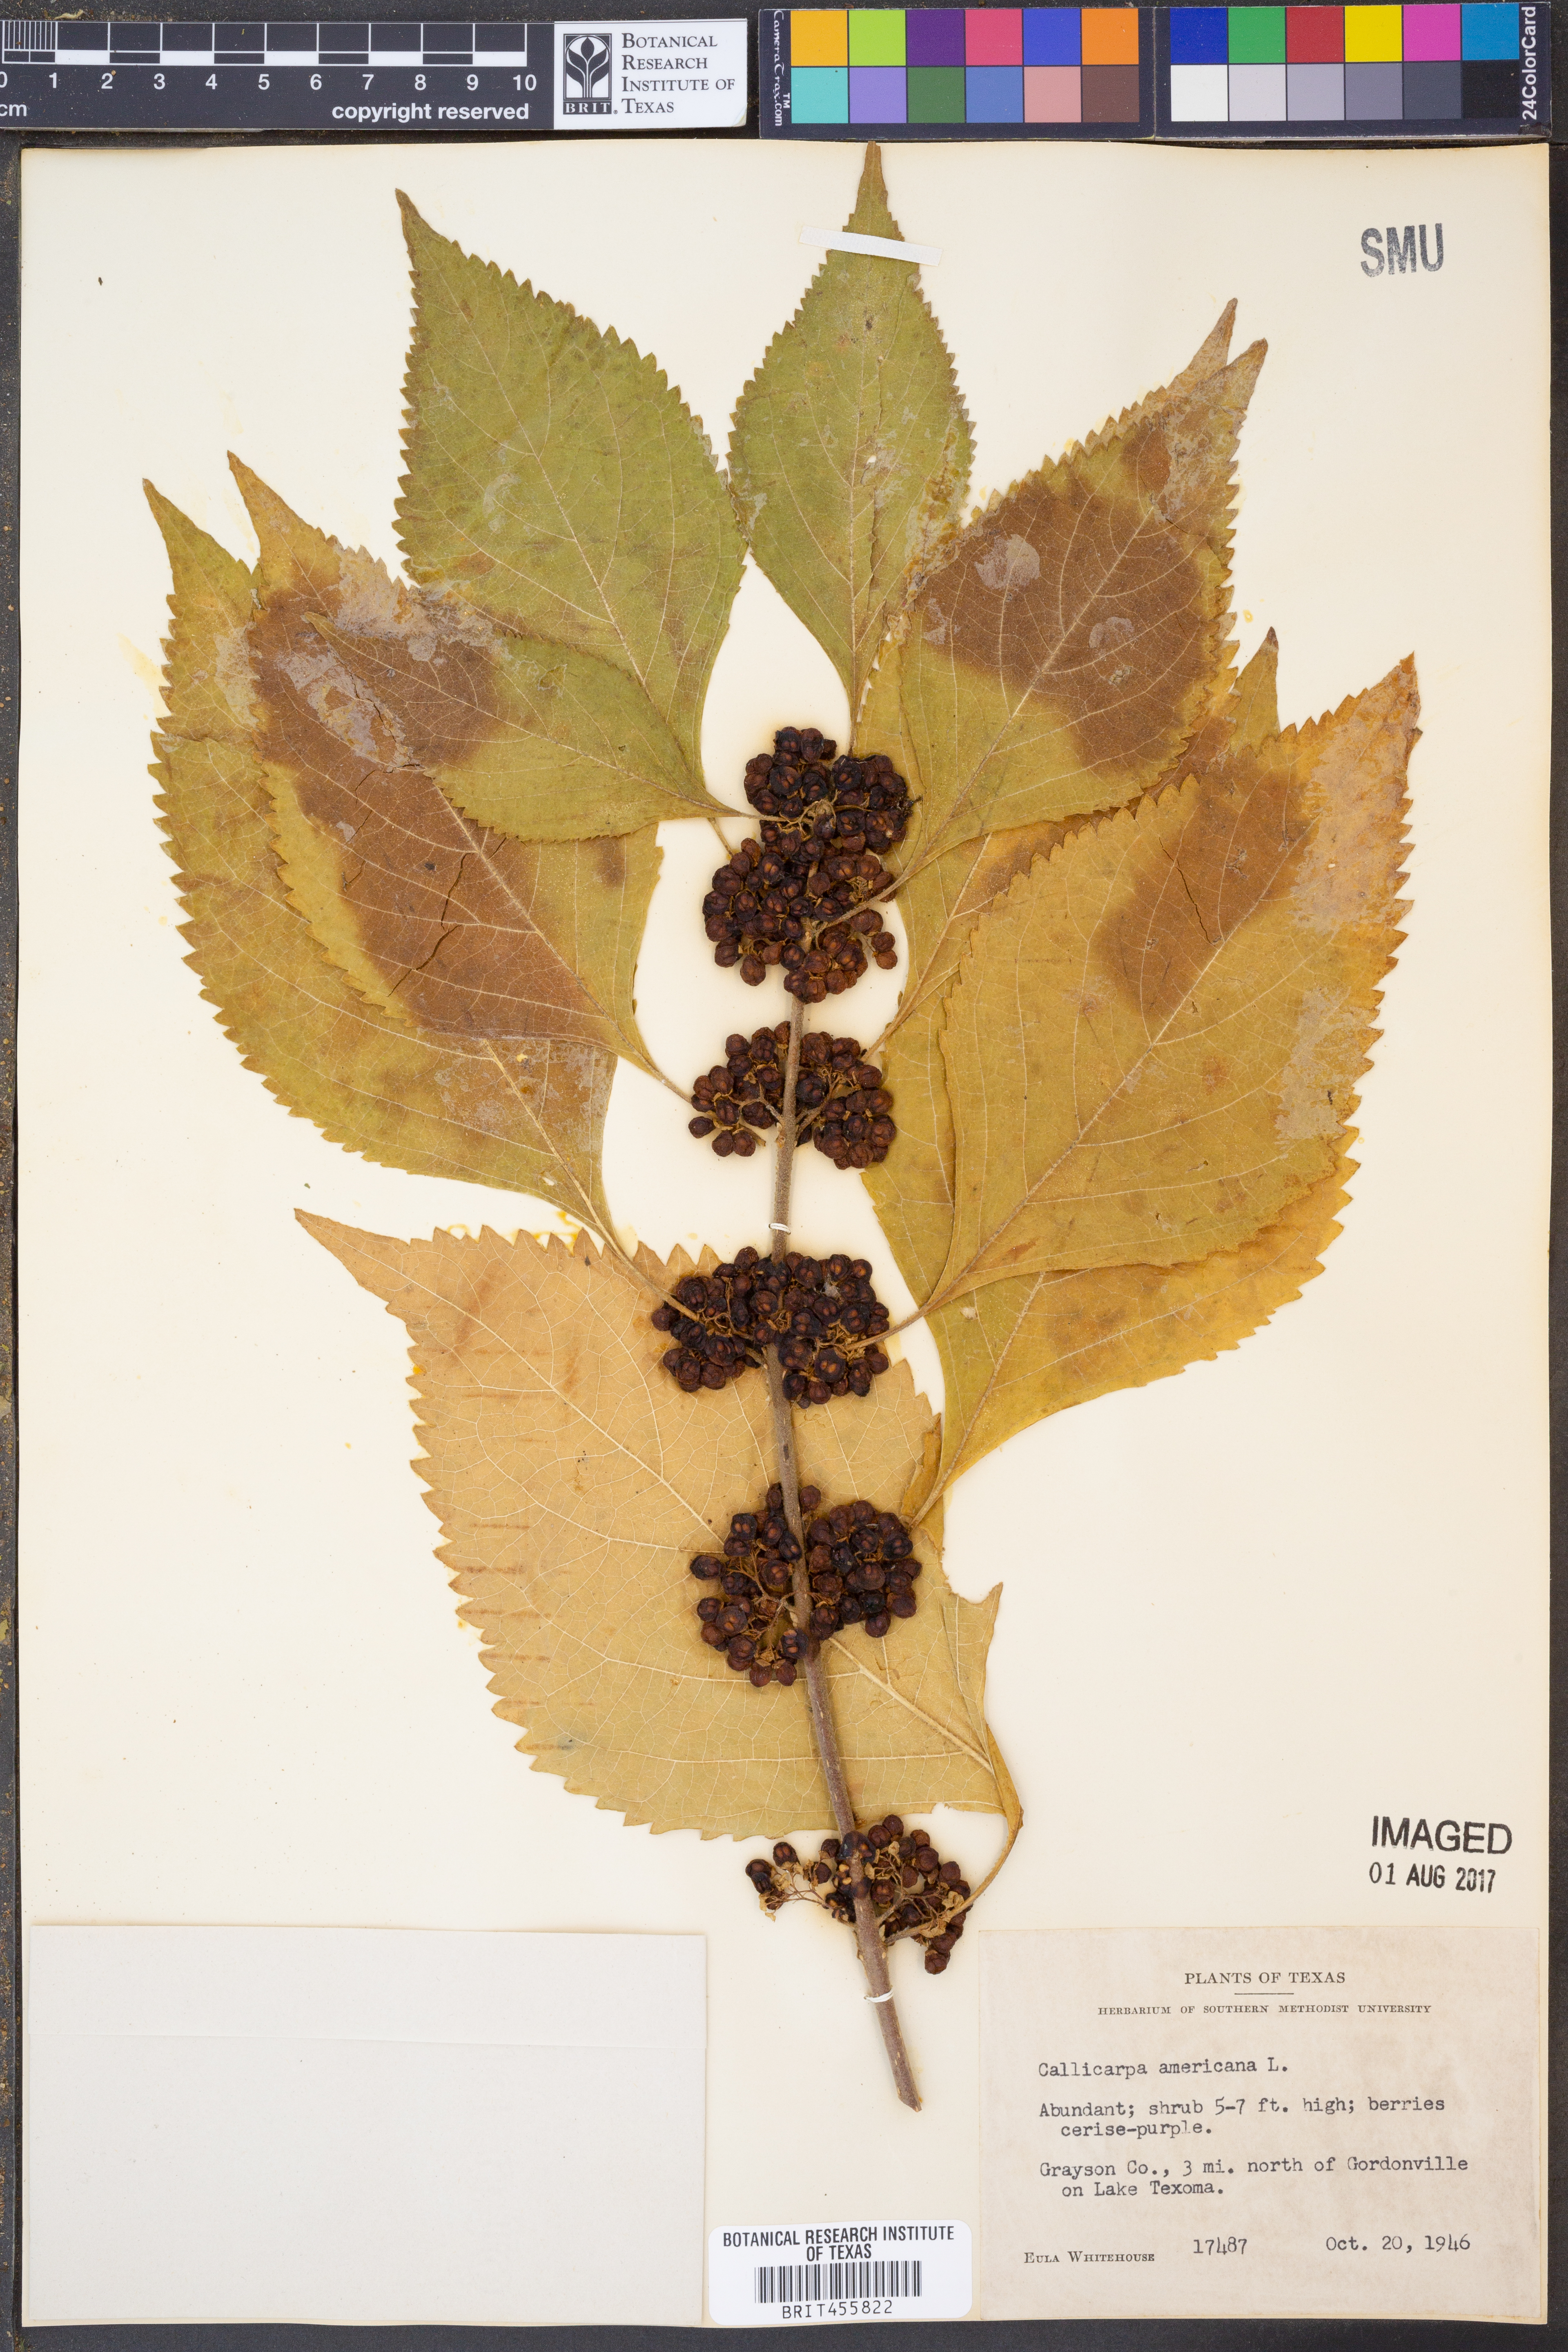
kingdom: Plantae
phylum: Tracheophyta
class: Magnoliopsida
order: Lamiales
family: Lamiaceae
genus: Callicarpa
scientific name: Callicarpa americana
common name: American beautyberry
